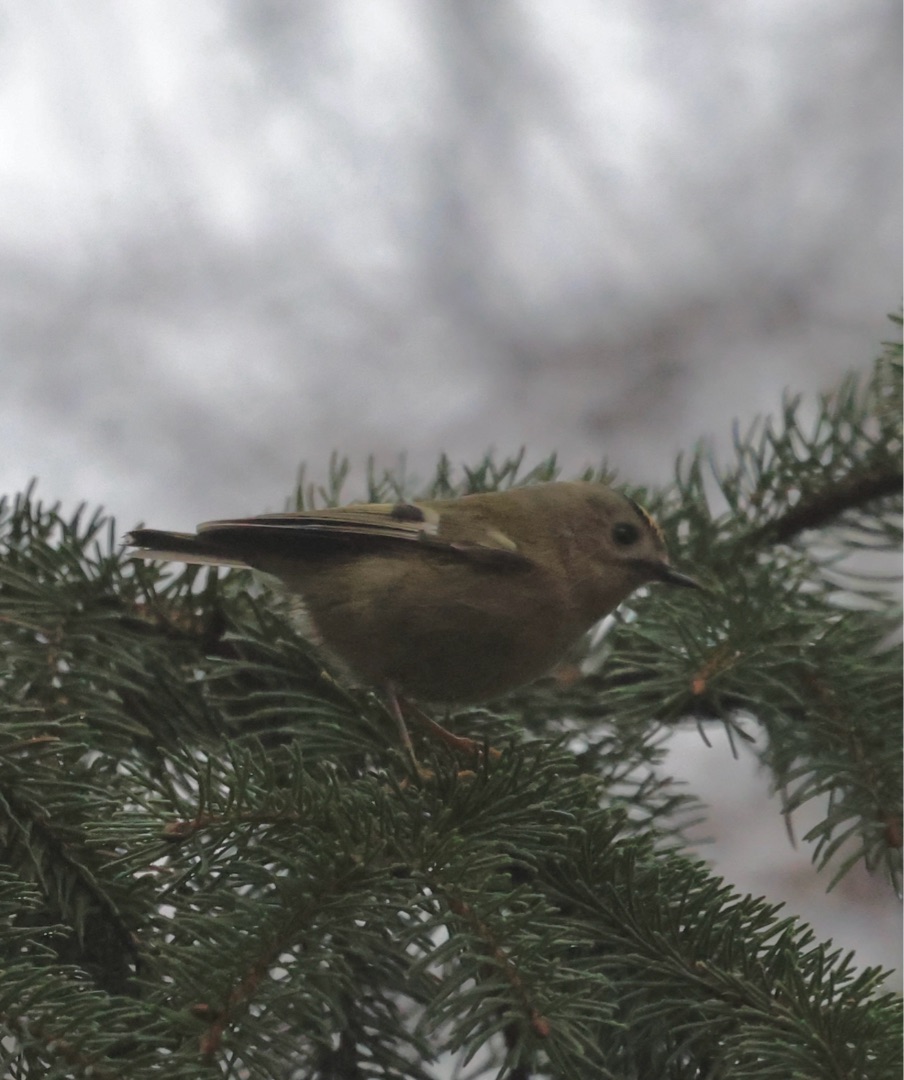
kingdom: Animalia
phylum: Chordata
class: Aves
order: Passeriformes
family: Regulidae
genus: Regulus
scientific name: Regulus regulus
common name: Fuglekonge
